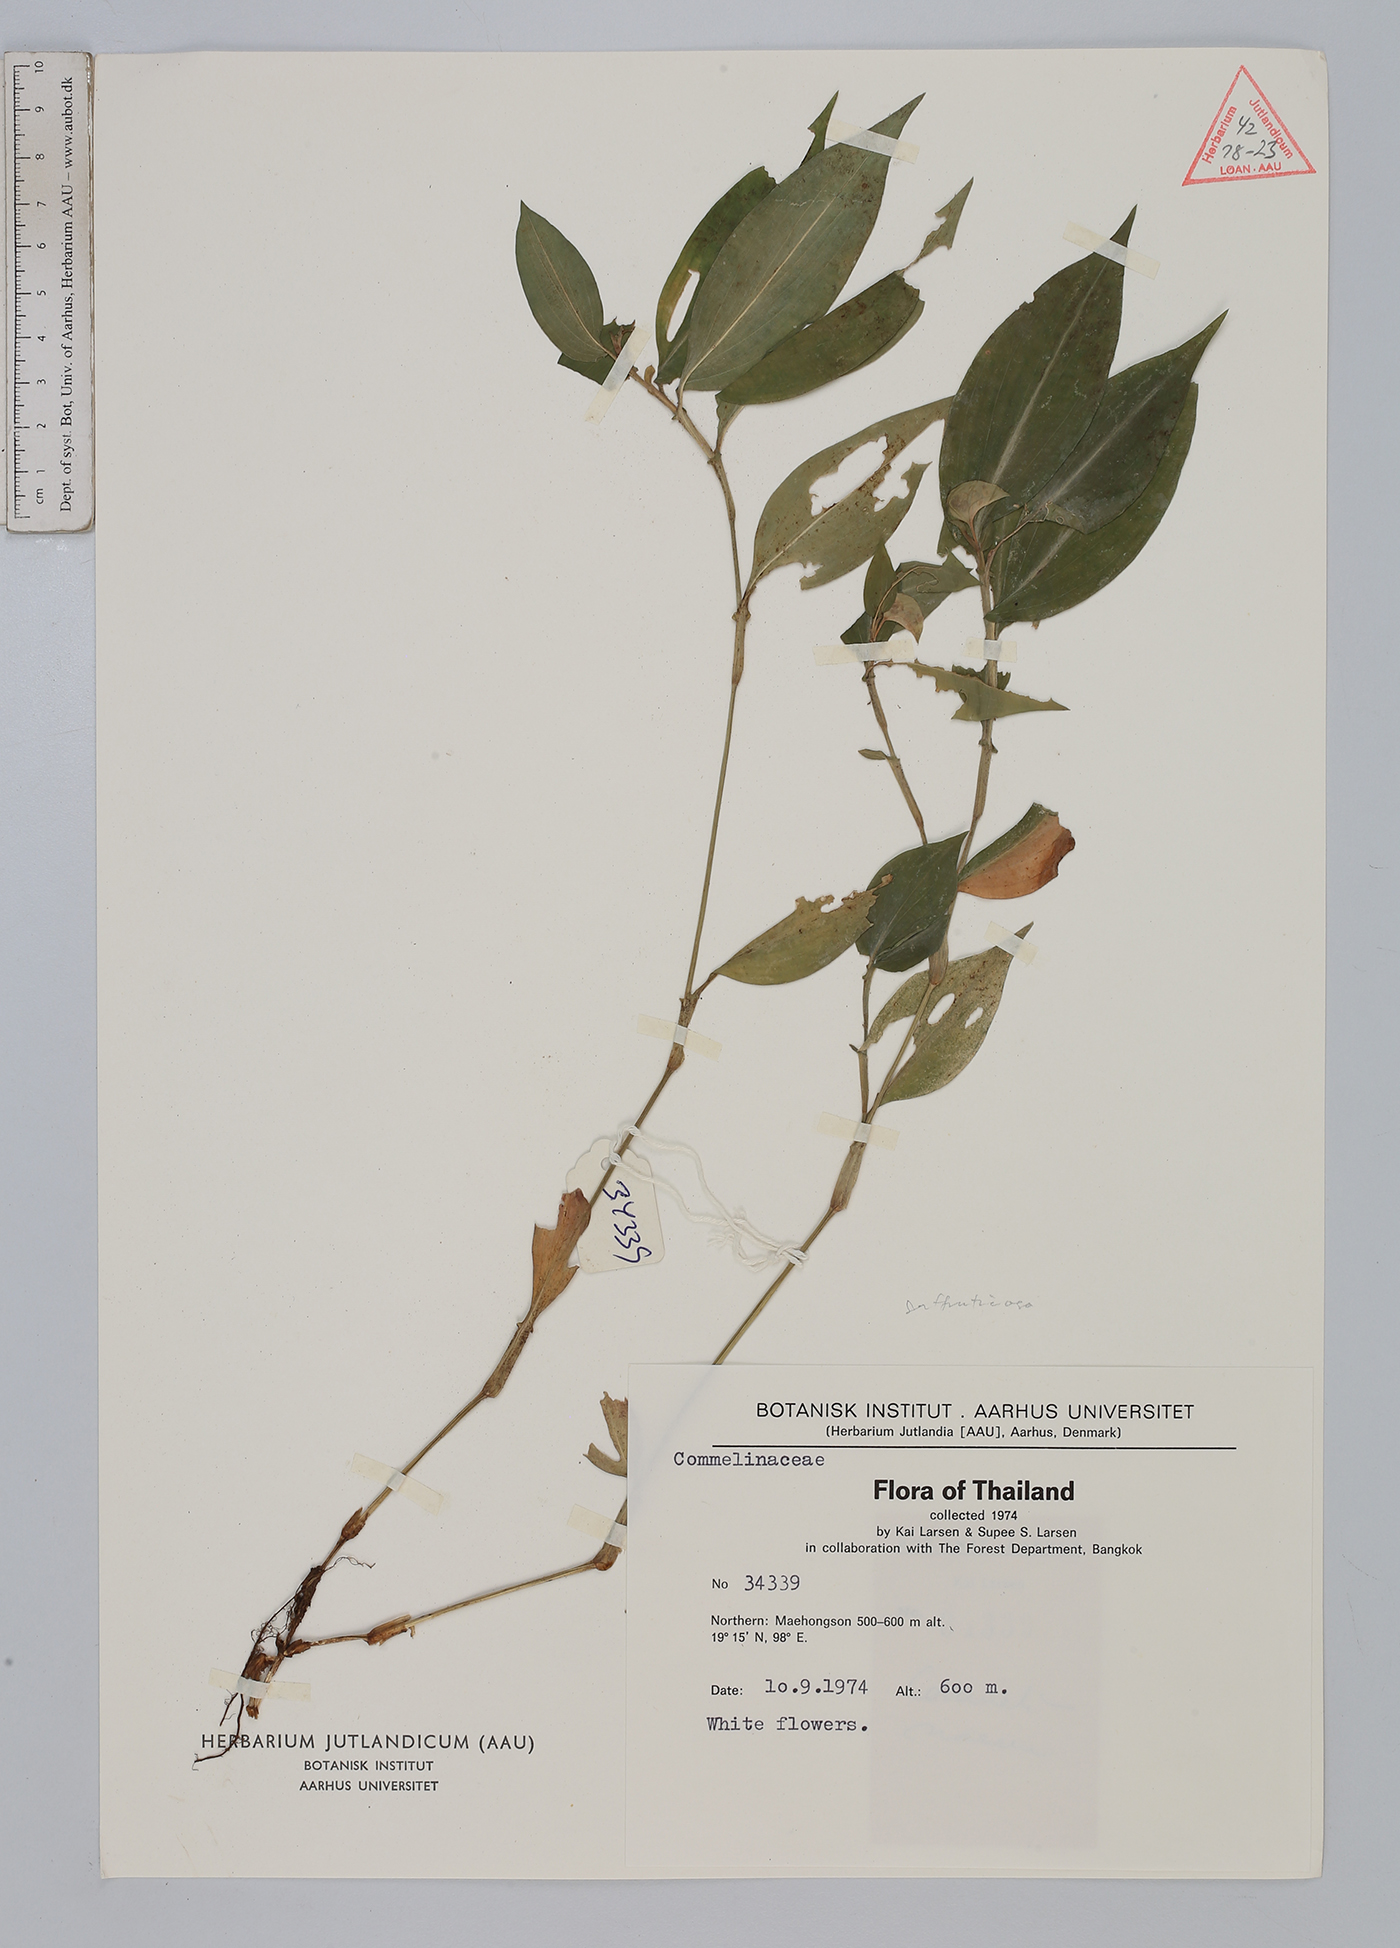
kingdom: Plantae
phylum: Tracheophyta
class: Liliopsida
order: Commelinales
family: Commelinaceae
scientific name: Commelinaceae
